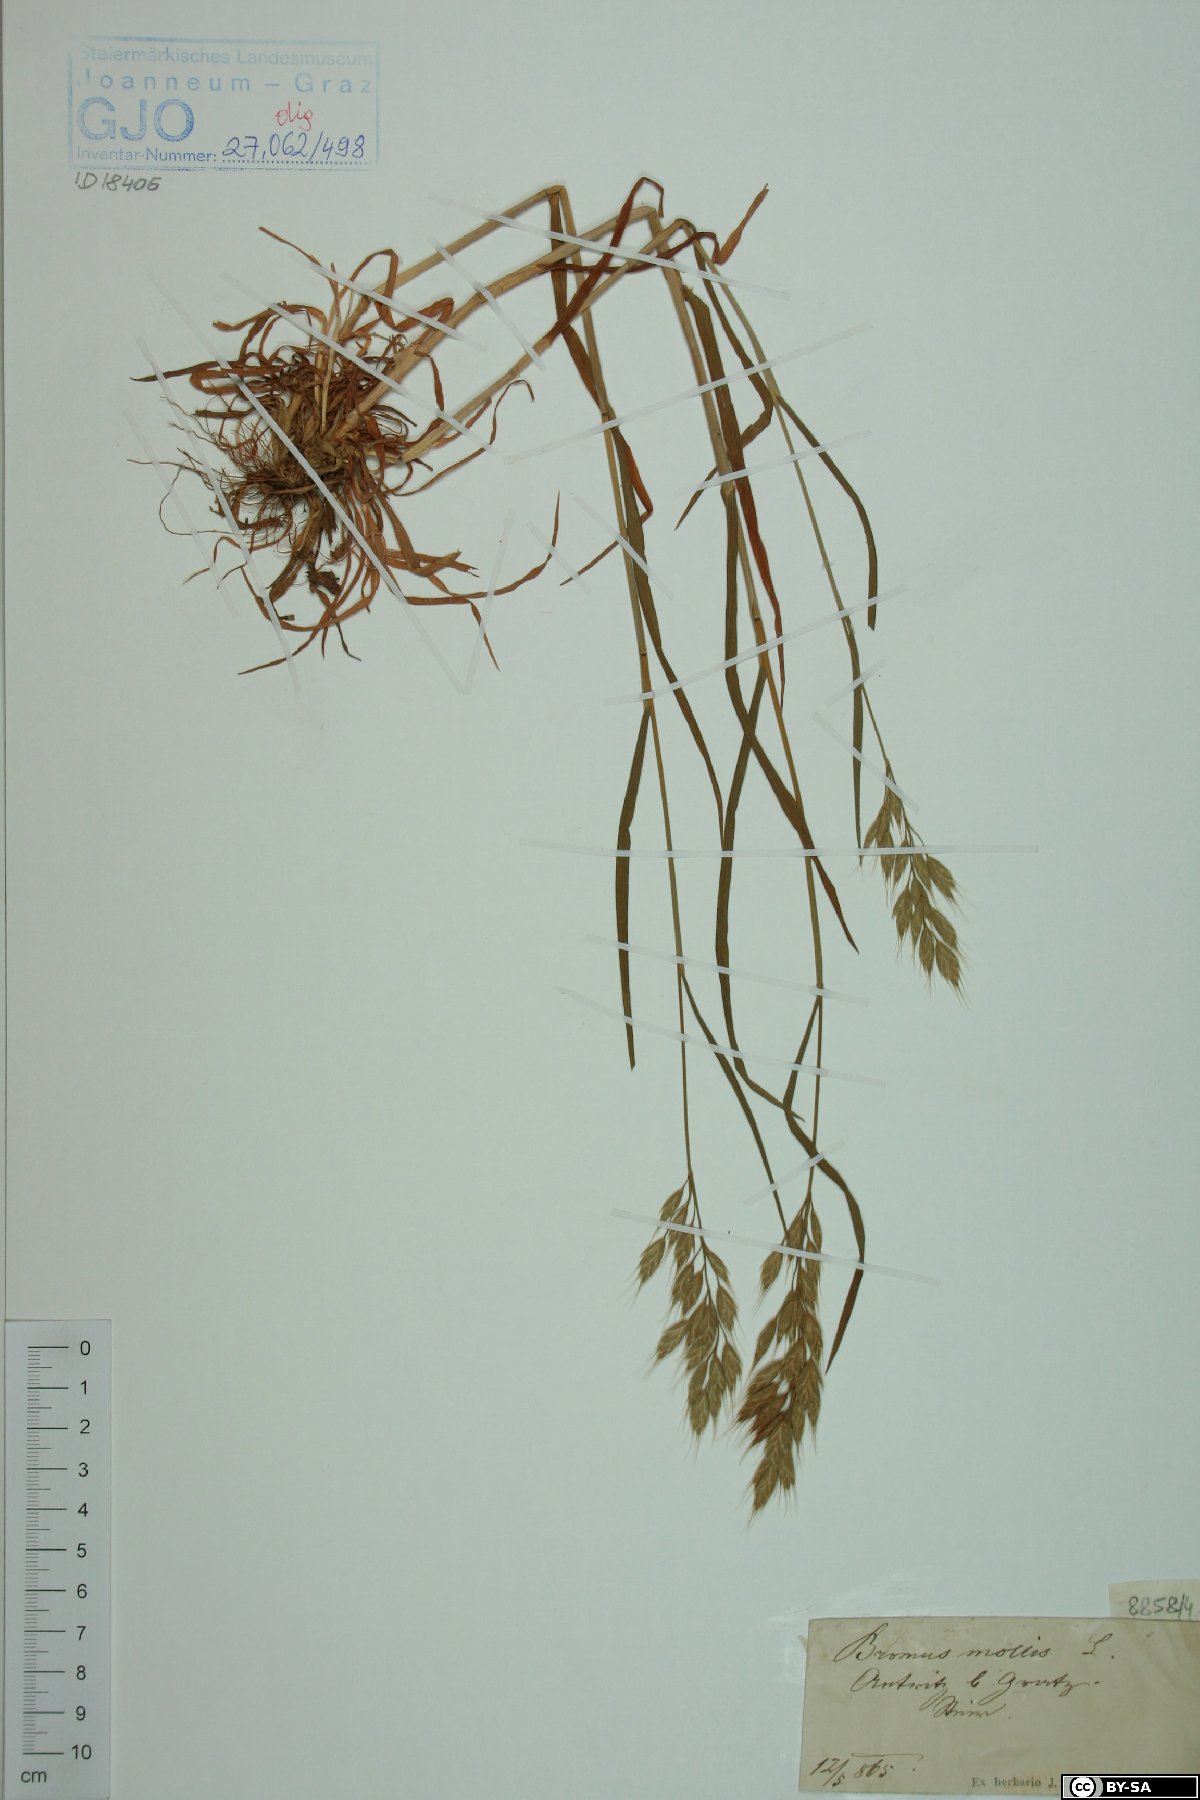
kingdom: Plantae
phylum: Tracheophyta
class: Liliopsida
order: Poales
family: Poaceae
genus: Bromus
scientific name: Bromus hordeaceus
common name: Soft brome
